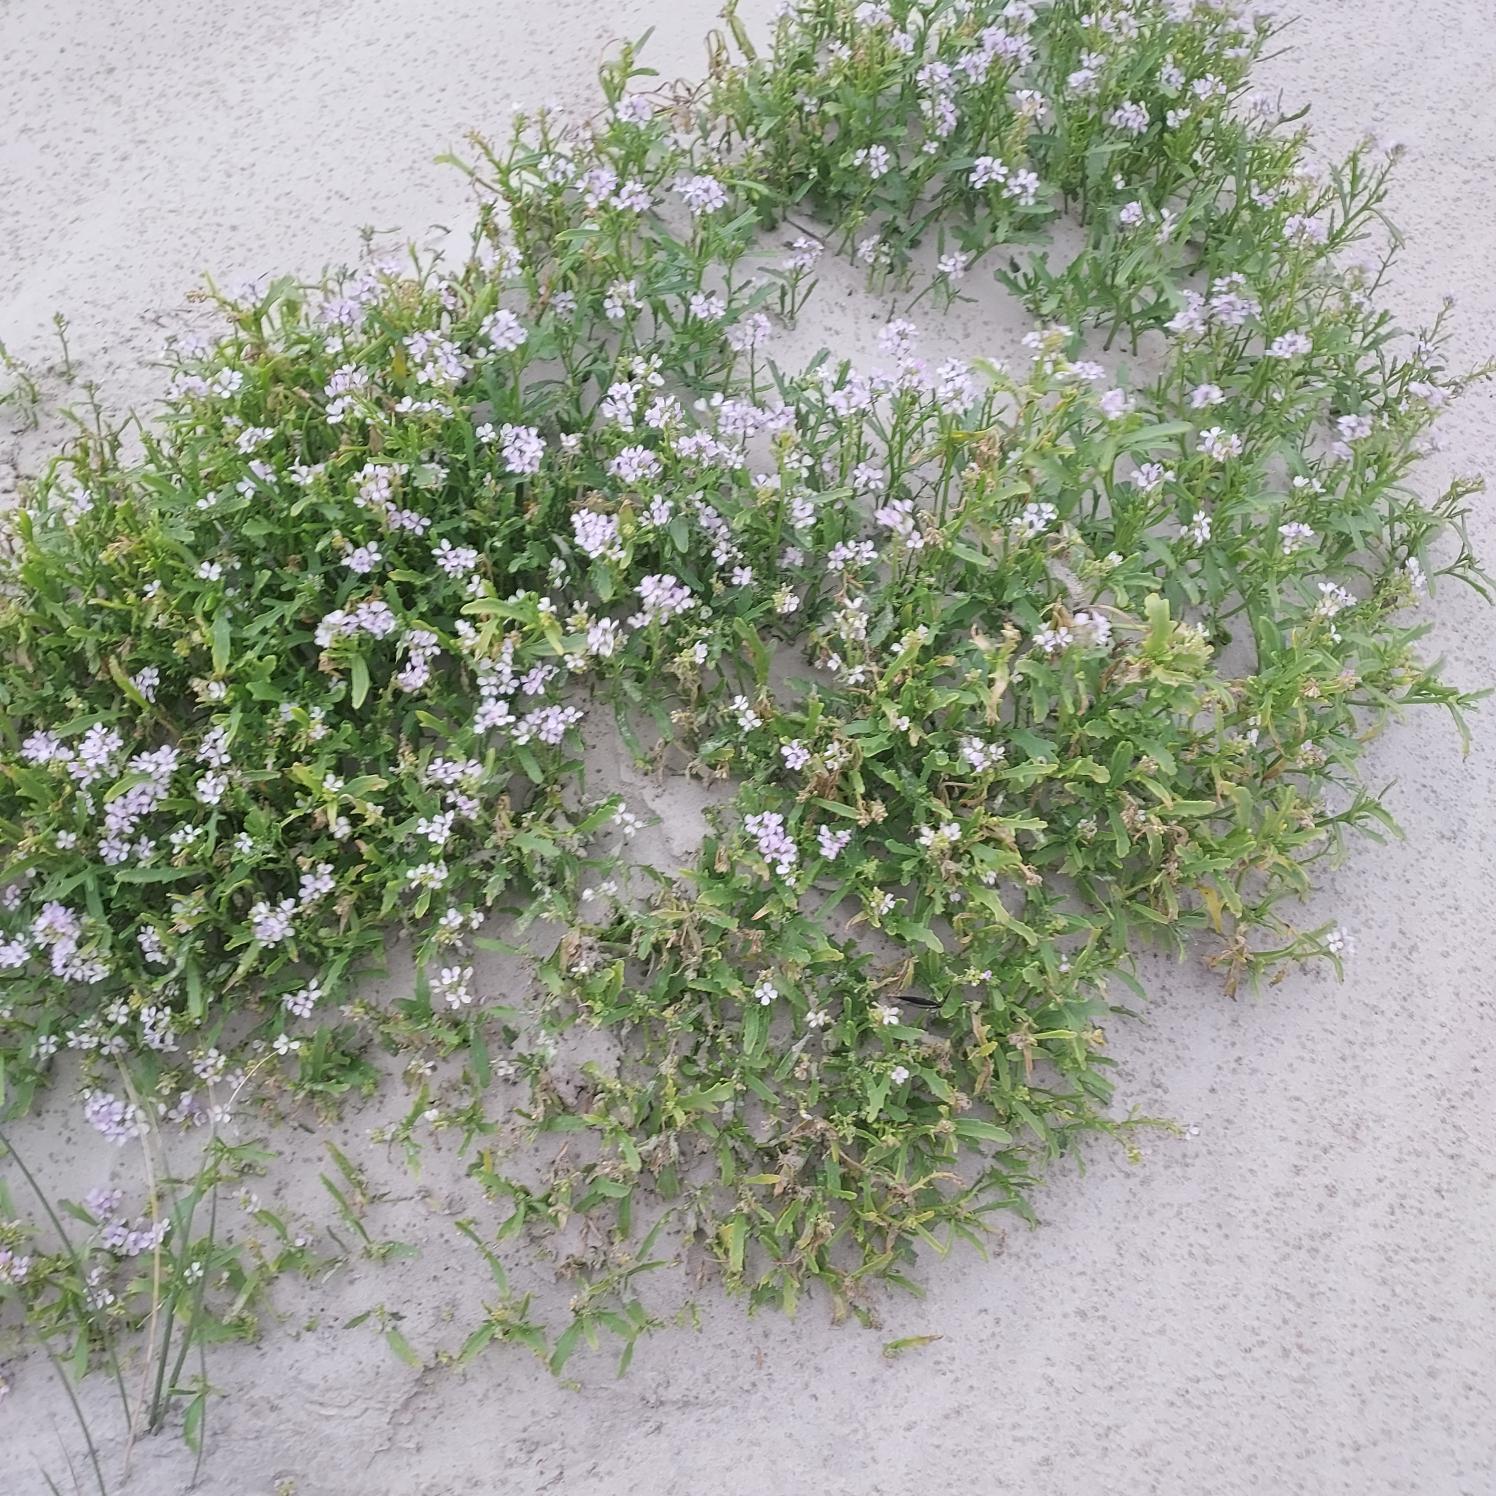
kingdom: Plantae
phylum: Tracheophyta
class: Magnoliopsida
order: Brassicales
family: Brassicaceae
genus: Cakile
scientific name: Cakile maritima
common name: Nordsø-strandsennep
